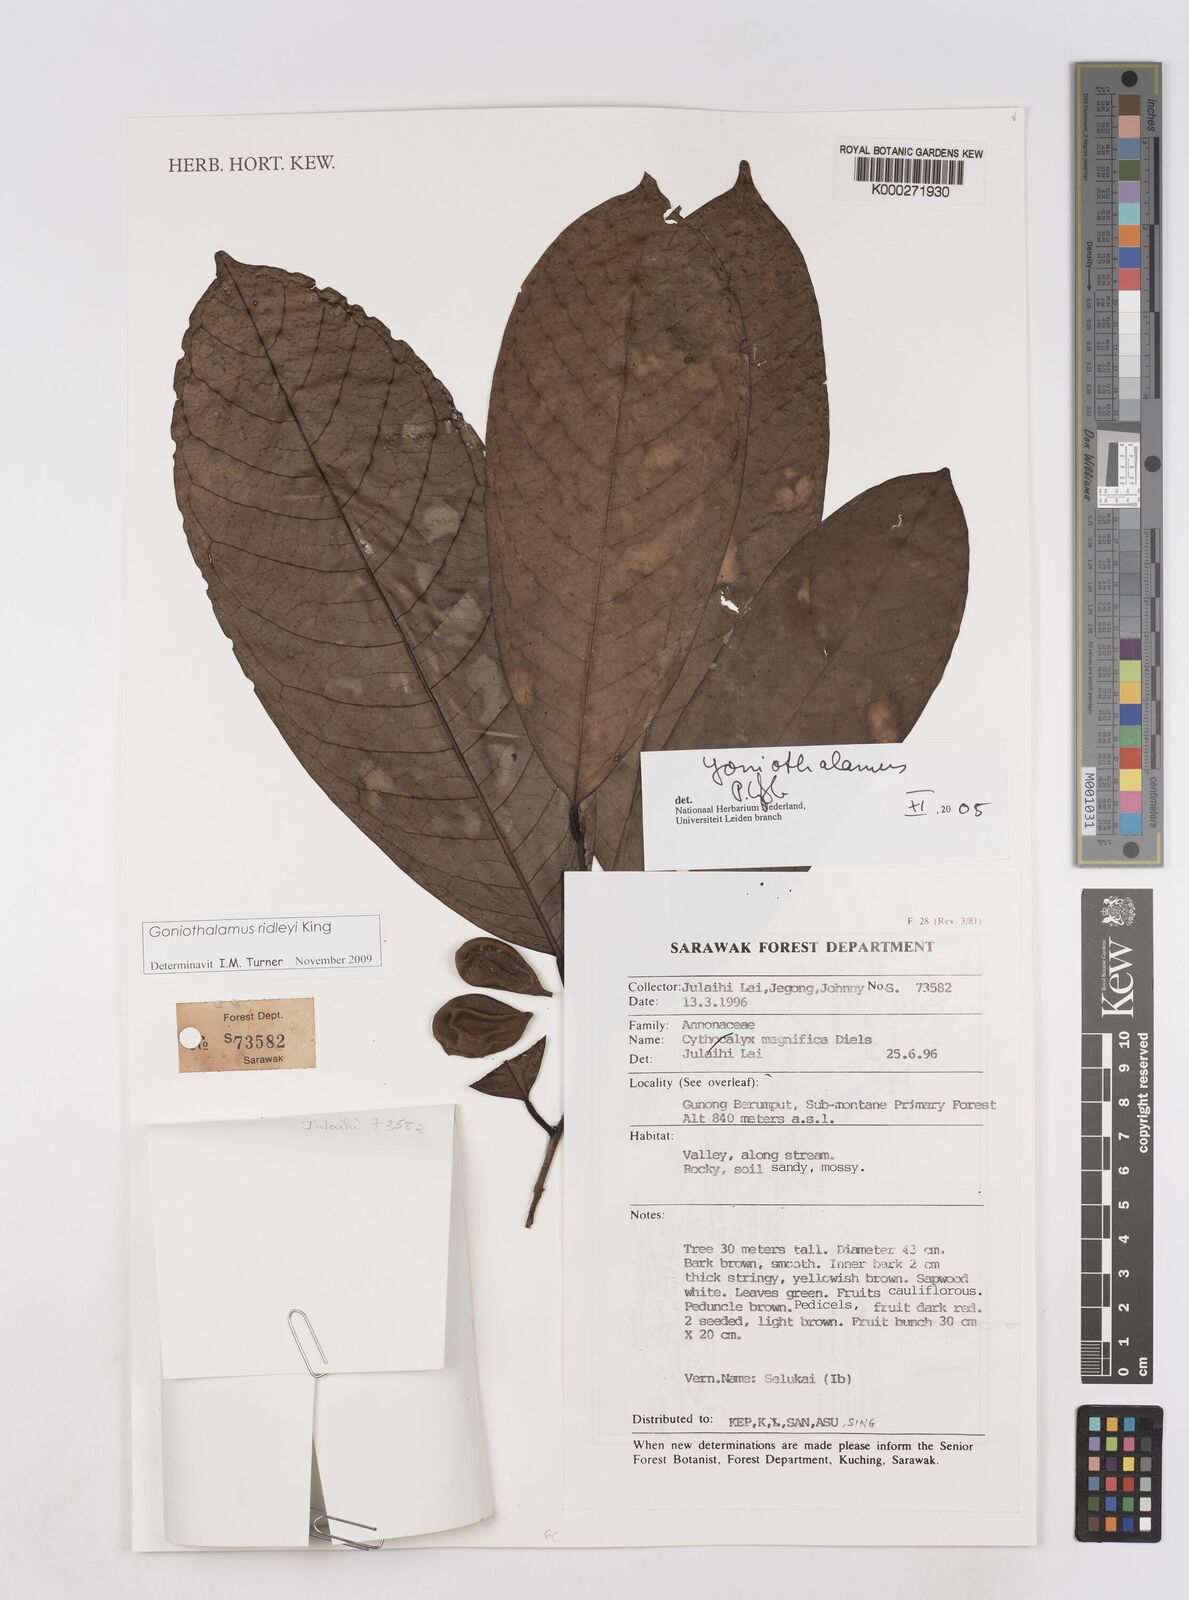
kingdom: Plantae
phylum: Tracheophyta
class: Magnoliopsida
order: Magnoliales
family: Annonaceae
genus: Goniothalamus
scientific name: Goniothalamus
